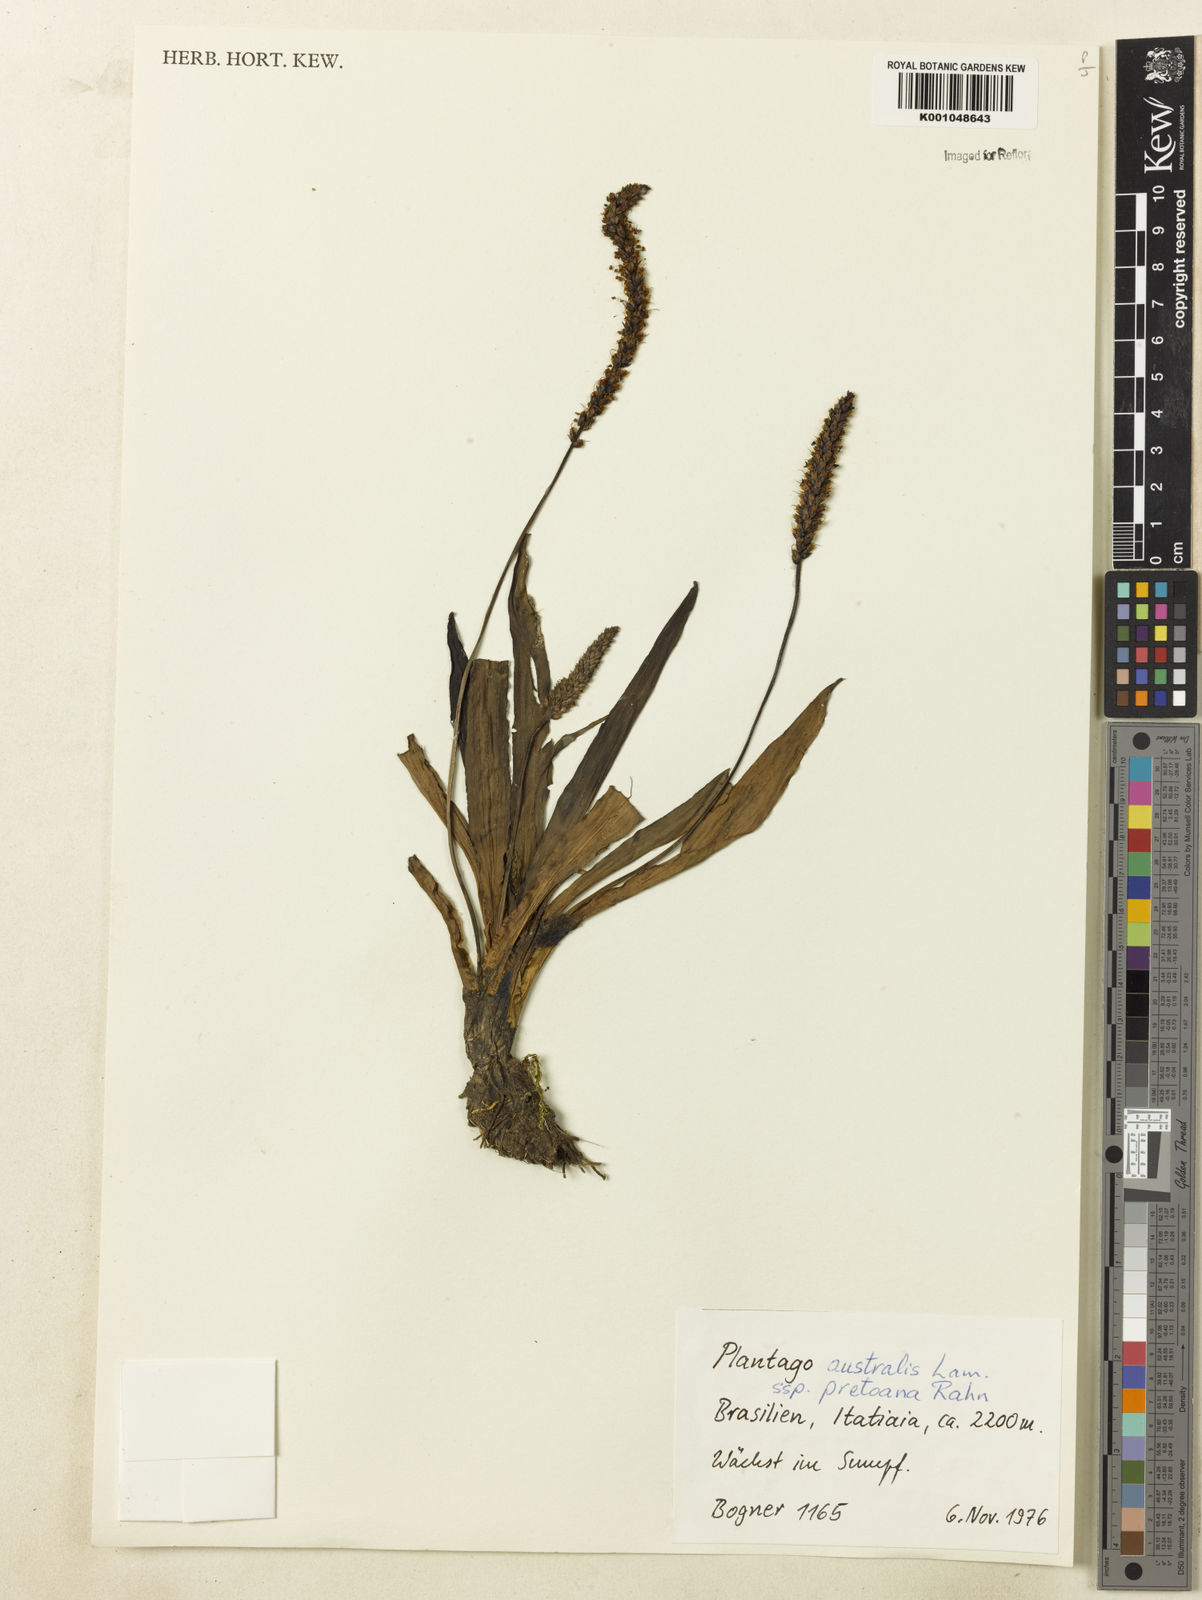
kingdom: Plantae
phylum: Tracheophyta
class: Magnoliopsida
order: Lamiales
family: Plantaginaceae
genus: Plantago
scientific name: Plantago australis
